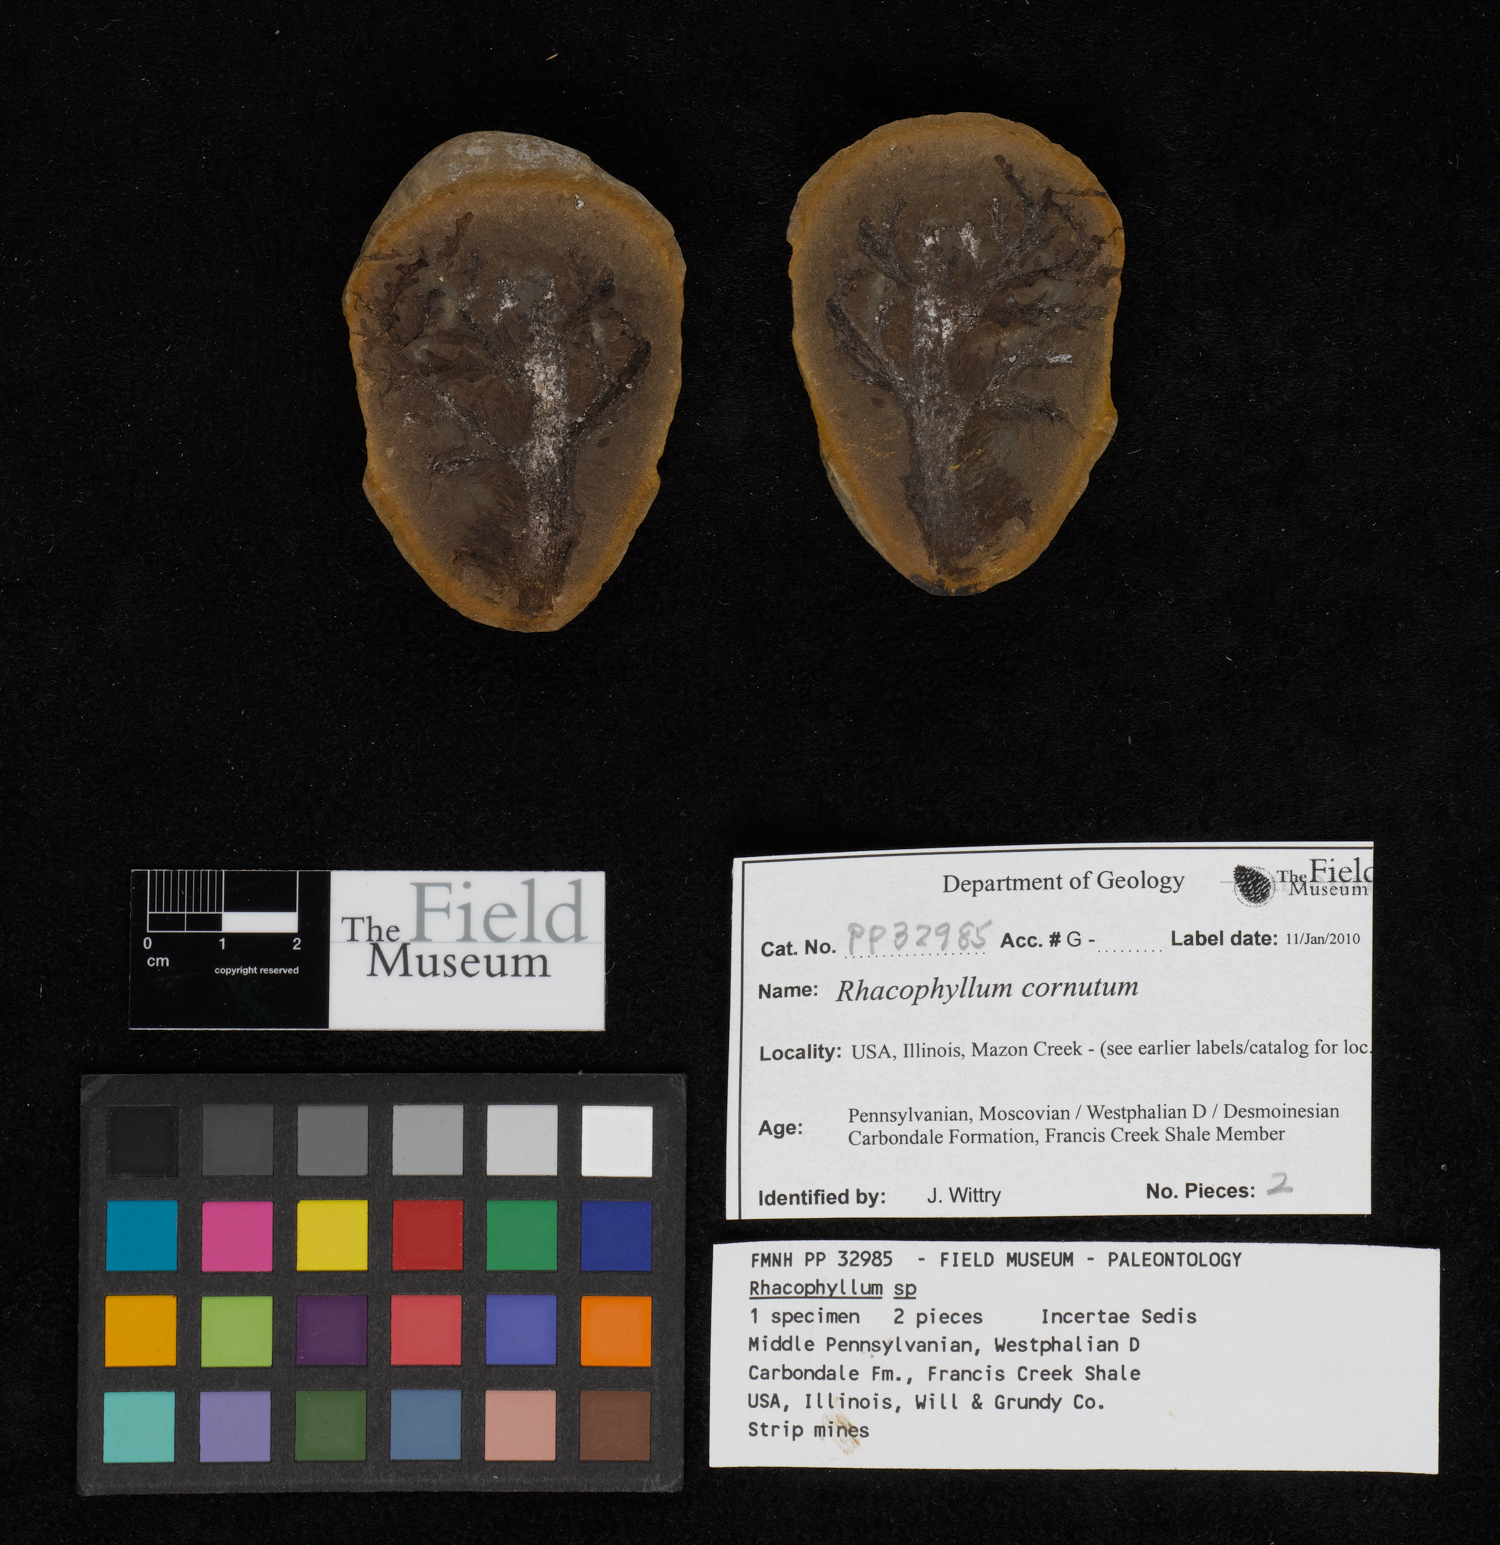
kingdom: Plantae
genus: Rhacophyllum
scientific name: Rhacophyllum
